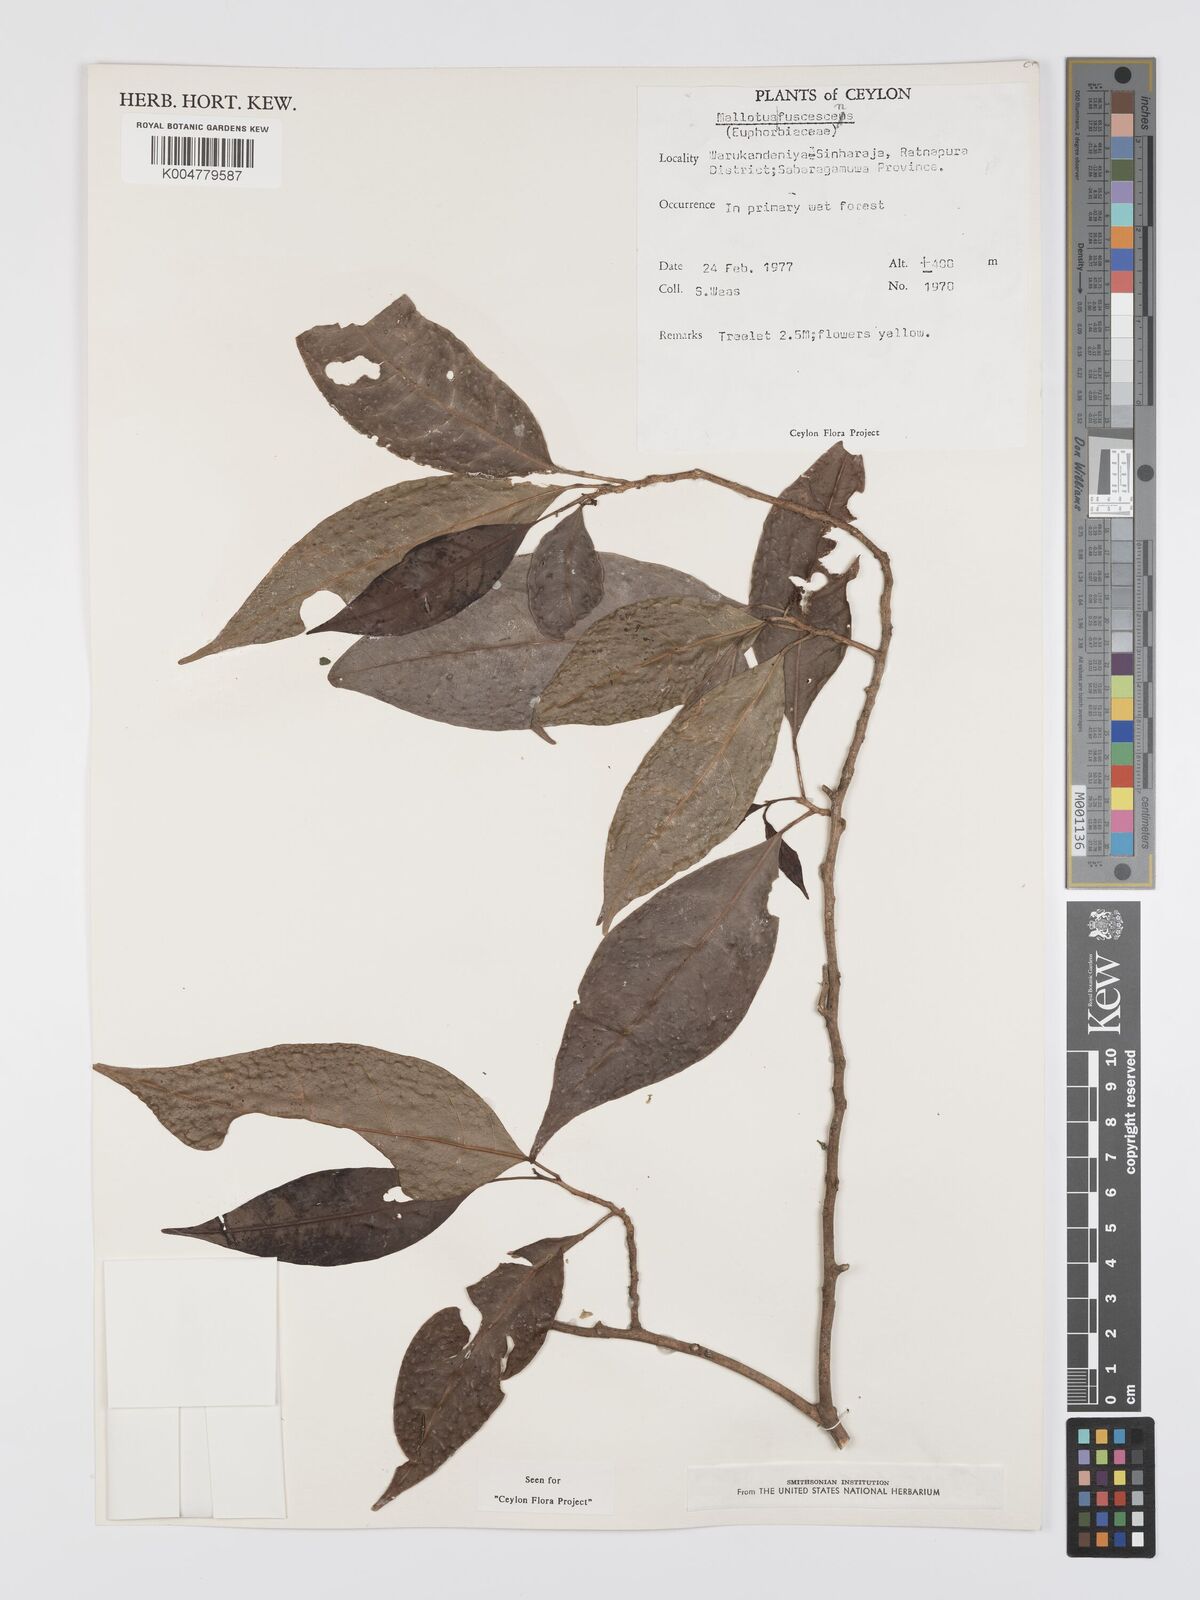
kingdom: Plantae
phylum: Tracheophyta
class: Magnoliopsida
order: Malpighiales
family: Euphorbiaceae
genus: Mallotus
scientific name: Mallotus fuscescens
